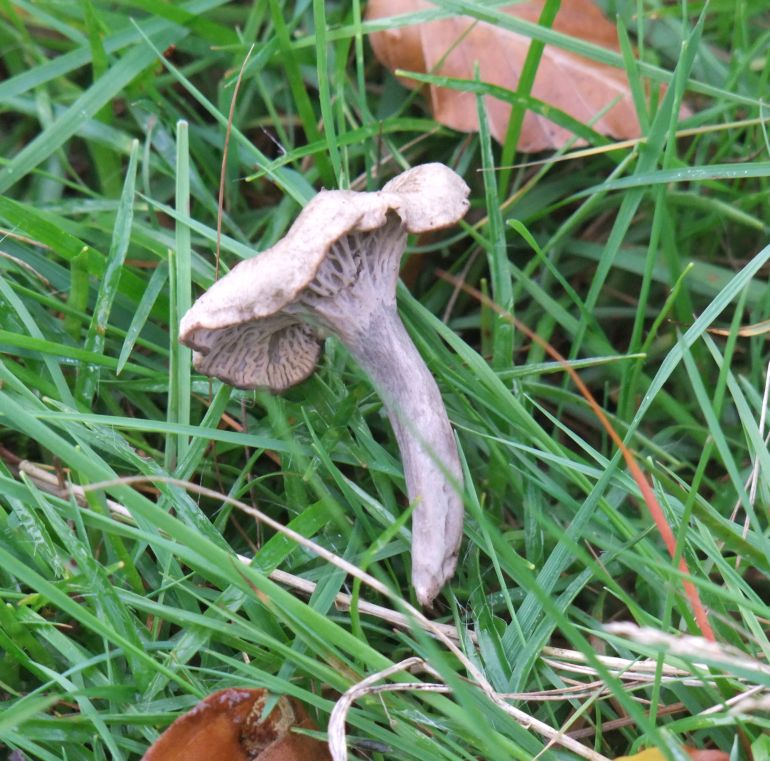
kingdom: Fungi
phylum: Basidiomycota
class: Agaricomycetes
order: Cantharellales
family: Hydnaceae
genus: Cantharellus
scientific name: Cantharellus cinereus
